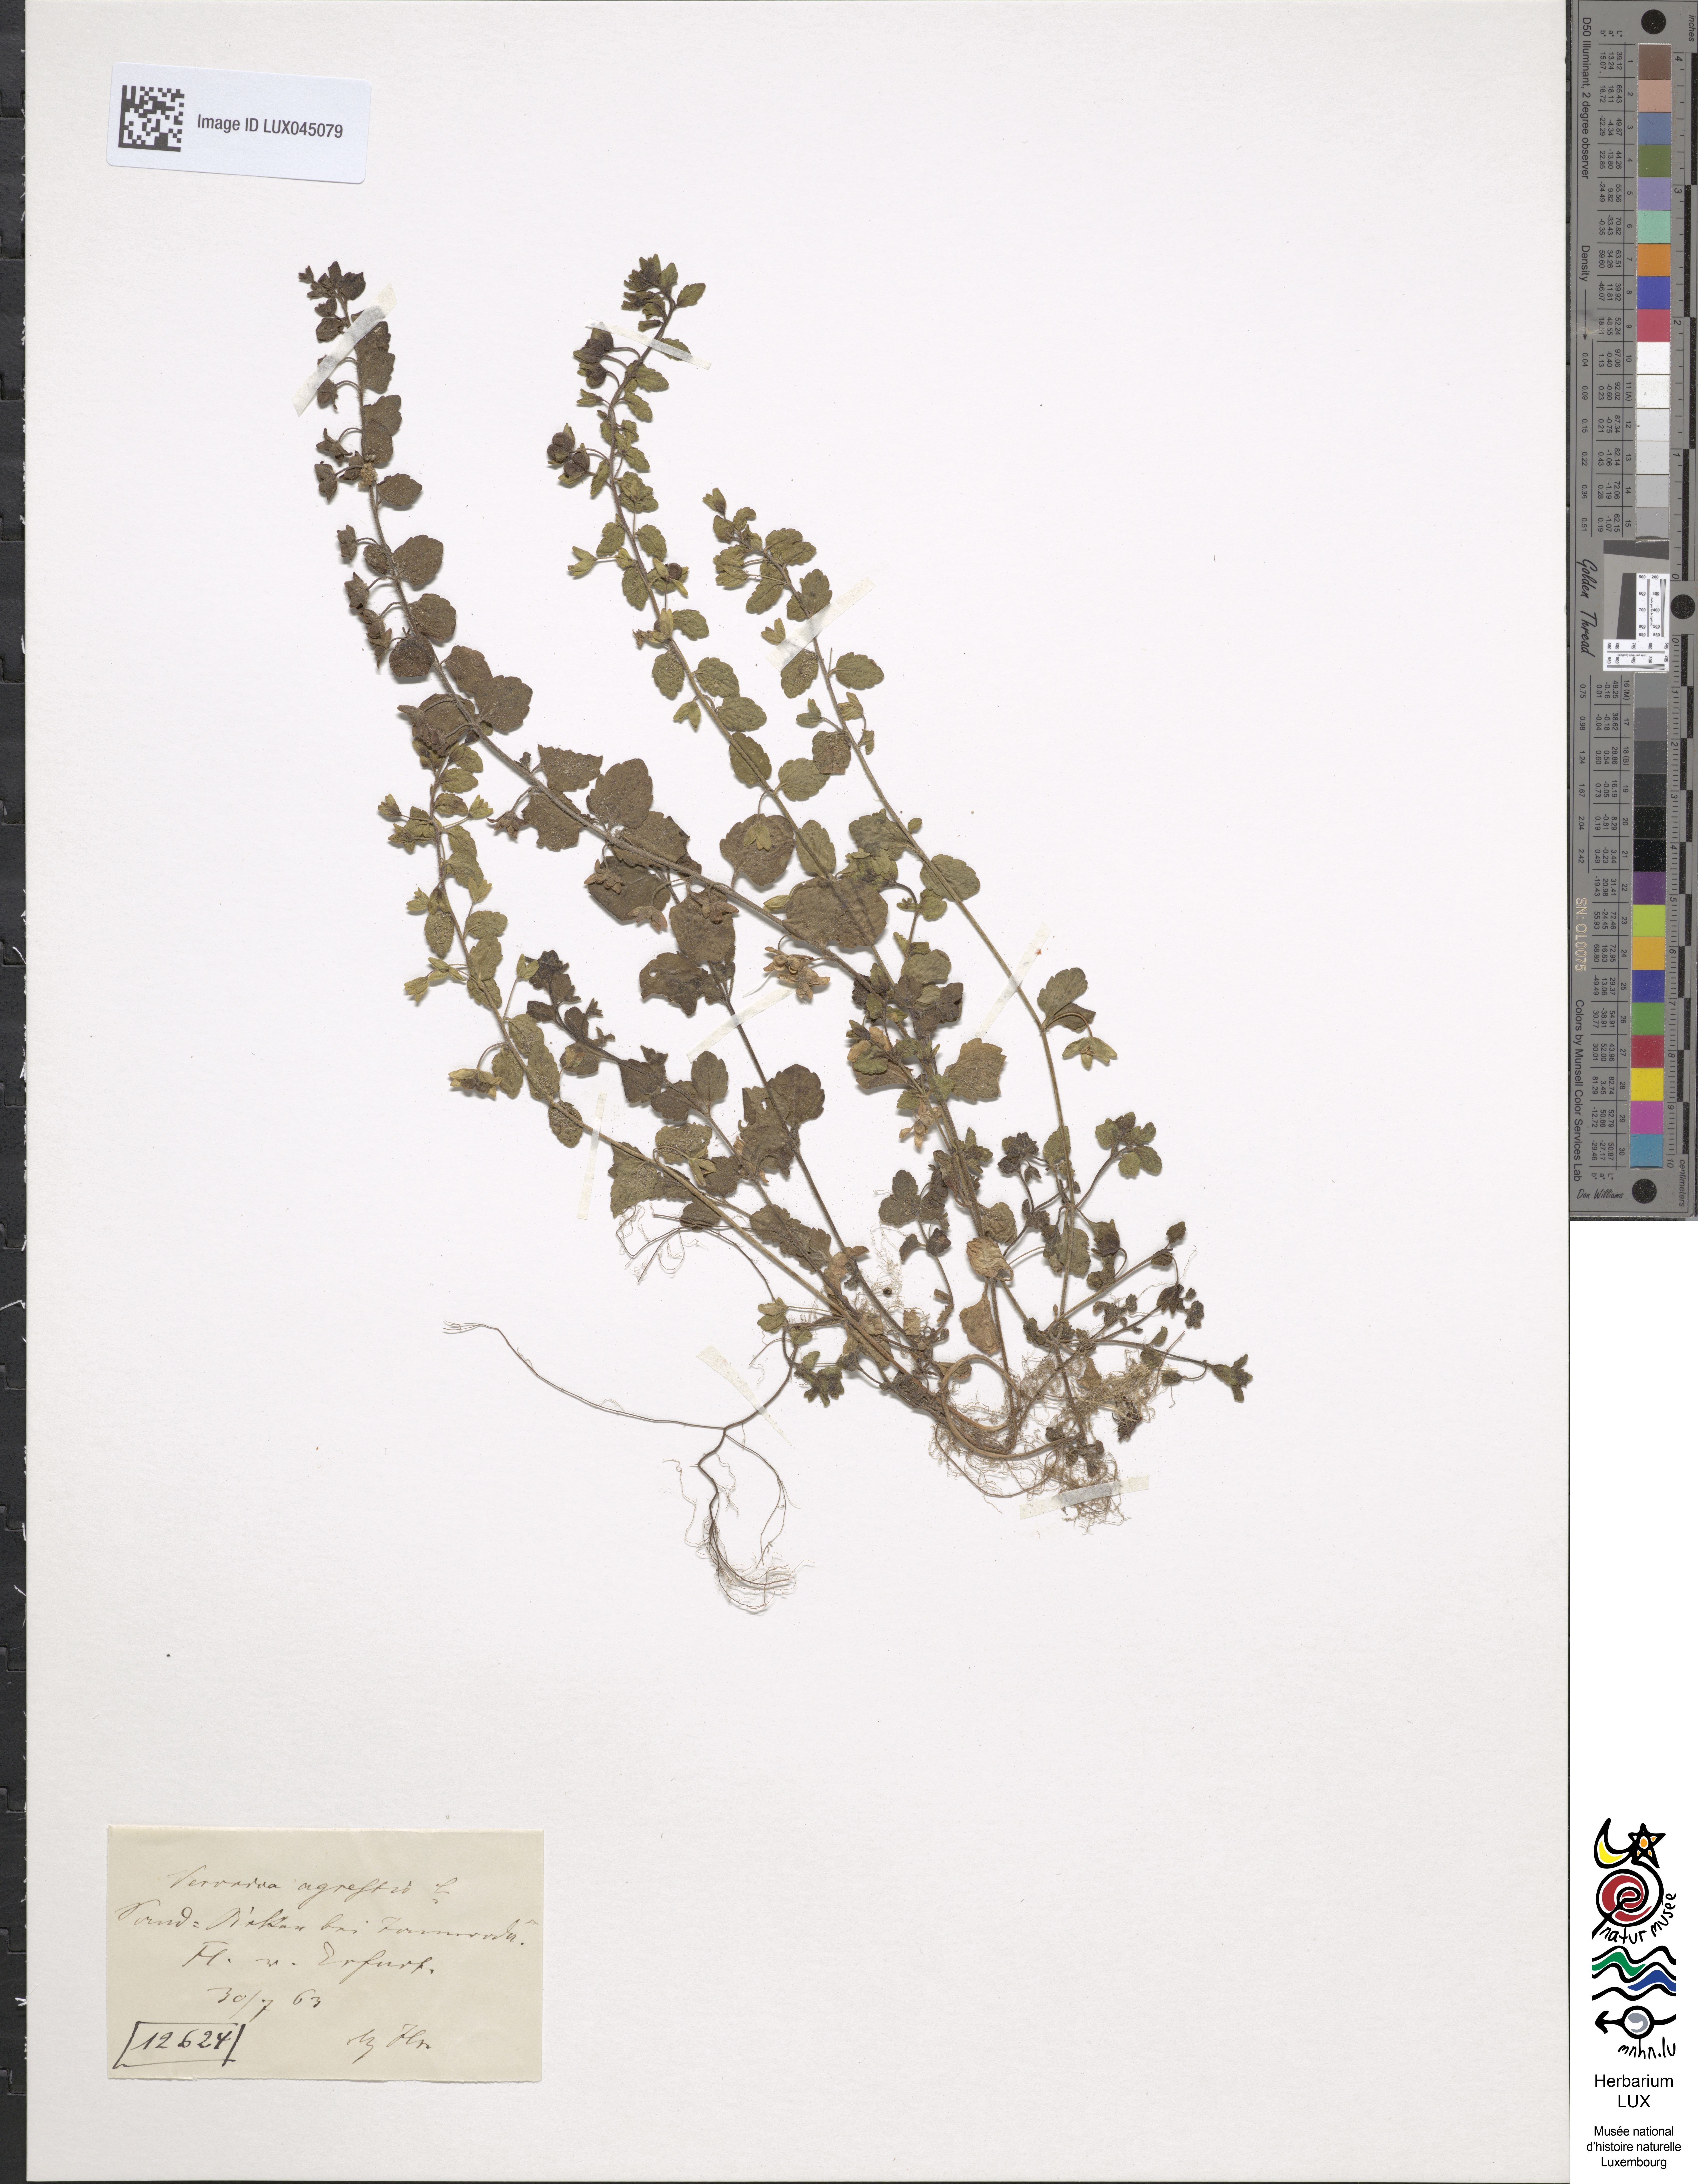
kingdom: Plantae
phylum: Tracheophyta
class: Magnoliopsida
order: Lamiales
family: Plantaginaceae
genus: Veronica
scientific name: Veronica agrestis
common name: Green field-speedwell
